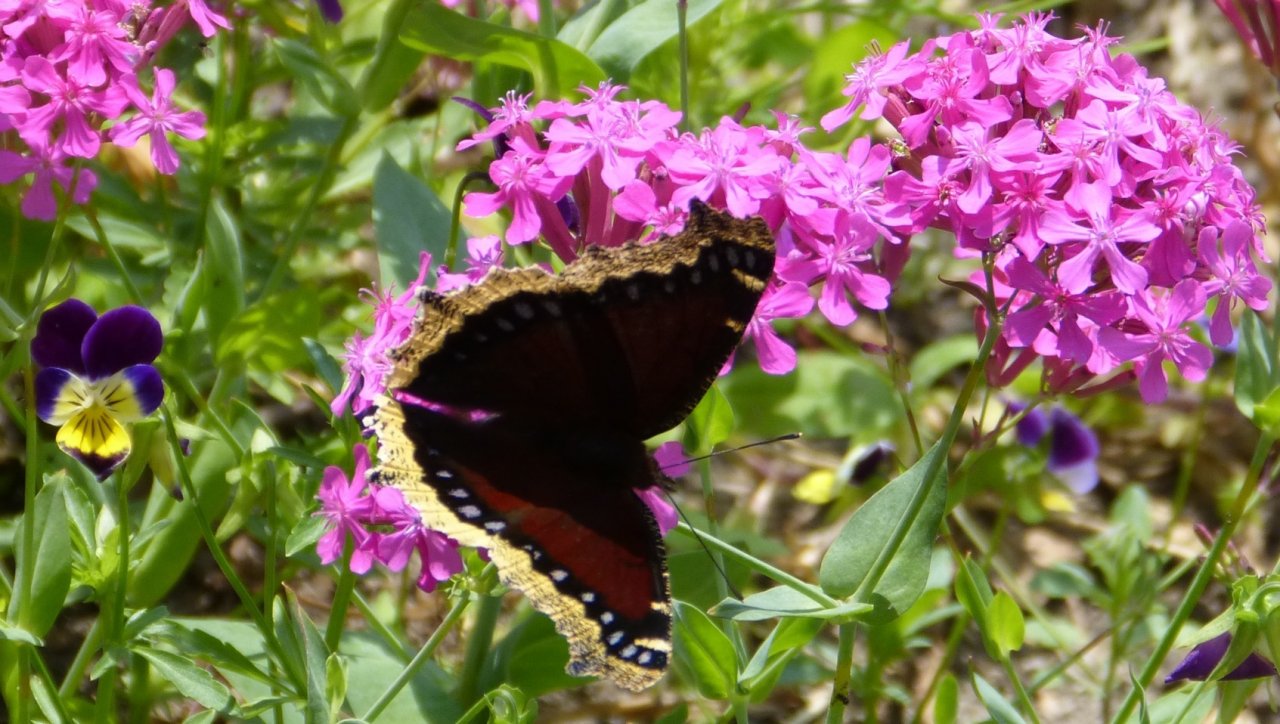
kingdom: Animalia
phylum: Arthropoda
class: Insecta
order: Lepidoptera
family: Nymphalidae
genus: Nymphalis
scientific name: Nymphalis antiopa
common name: Mourning Cloak
